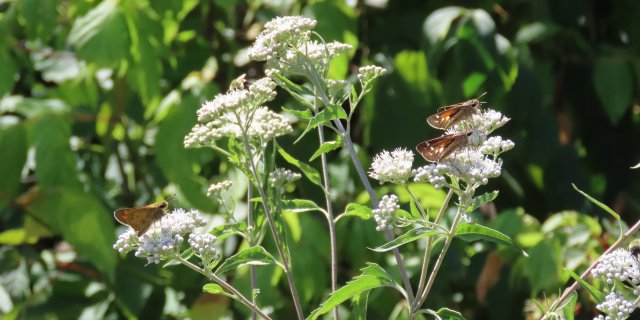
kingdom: Animalia
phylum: Arthropoda
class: Insecta
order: Lepidoptera
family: Hesperiidae
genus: Atalopedes
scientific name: Atalopedes campestris
